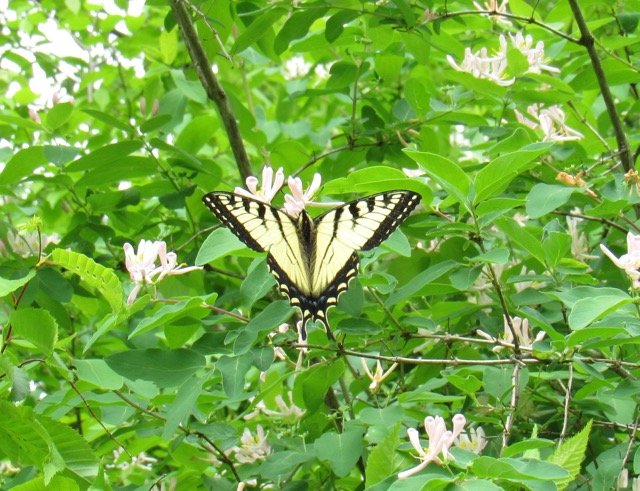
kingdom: Animalia
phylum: Arthropoda
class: Insecta
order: Lepidoptera
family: Papilionidae
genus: Pterourus
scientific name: Pterourus canadensis
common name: Canadian Tiger Swallowtail
